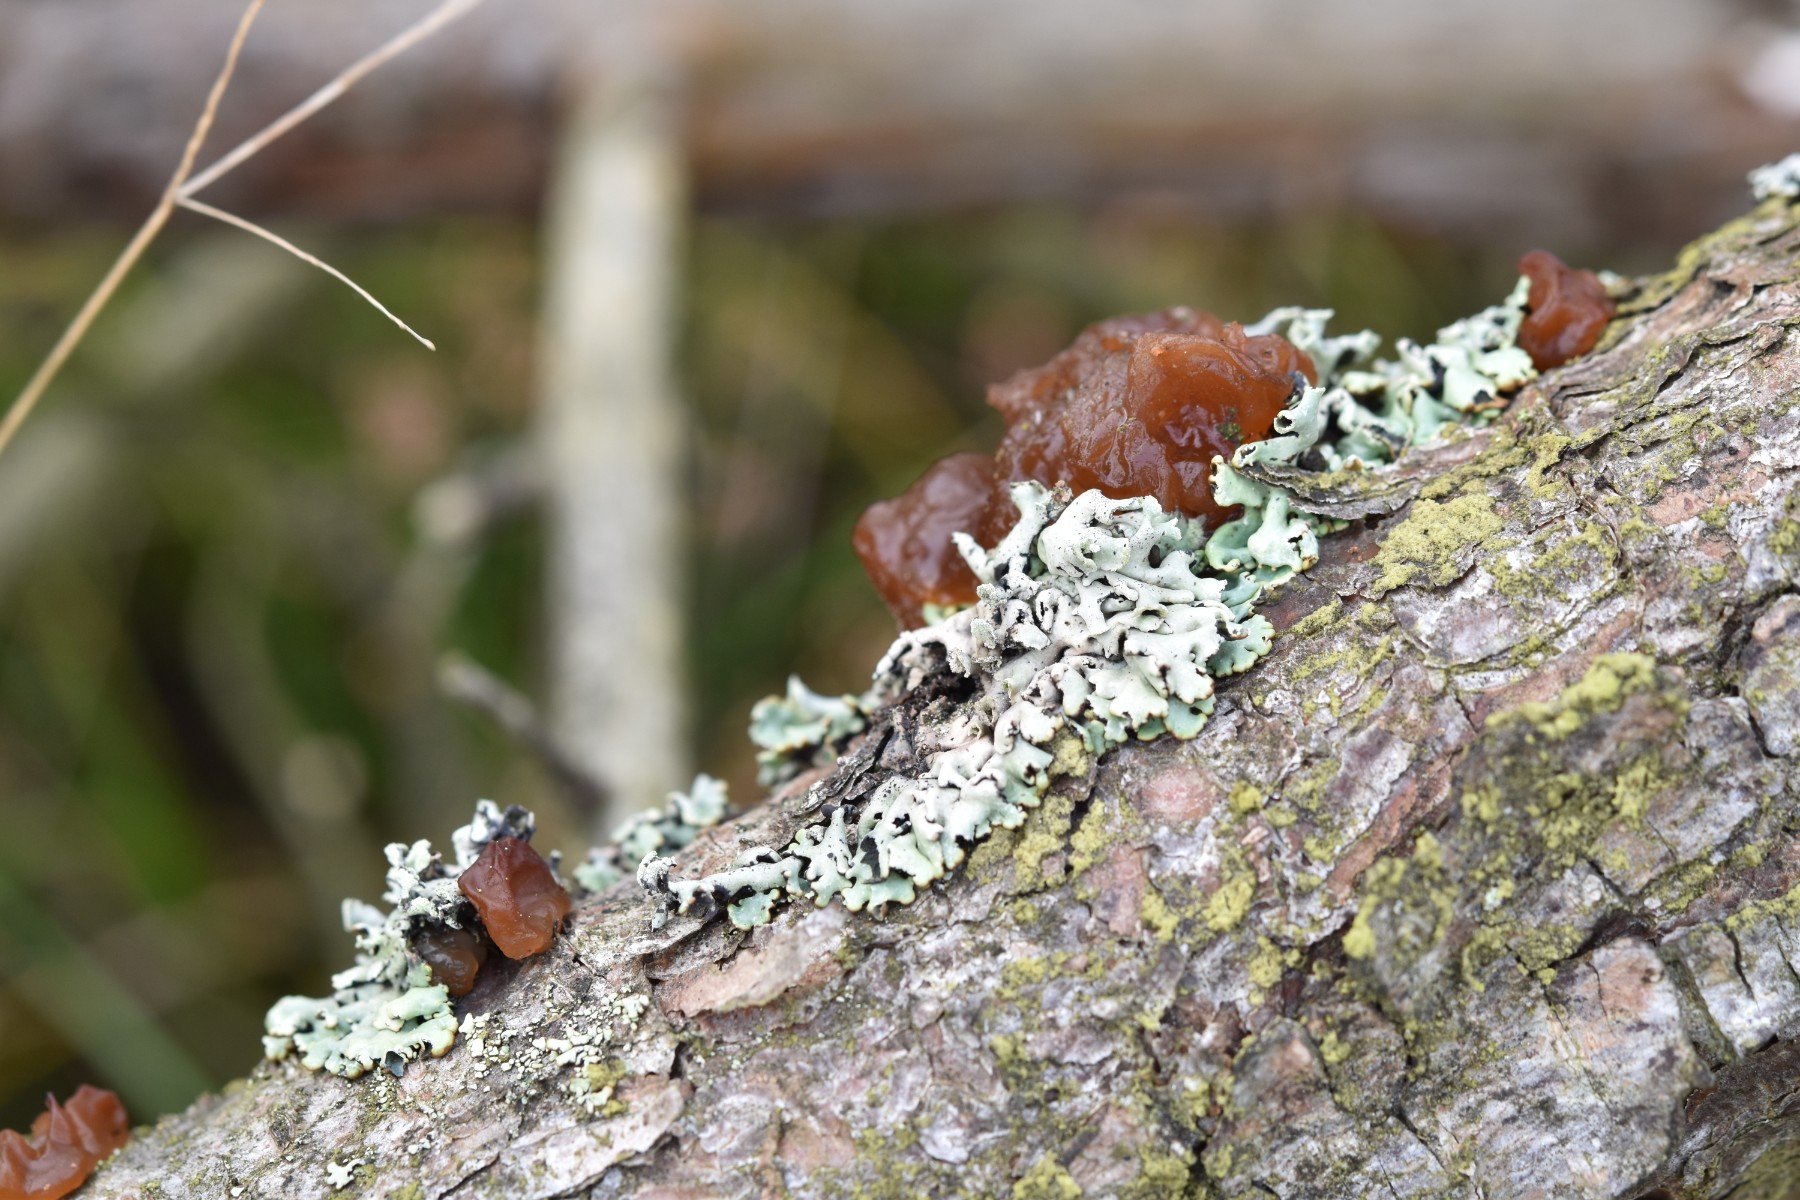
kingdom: Fungi
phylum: Basidiomycota
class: Agaricomycetes
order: Auriculariales
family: Auriculariaceae
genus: Exidia
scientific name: Exidia saccharina
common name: kandis-bævretop
